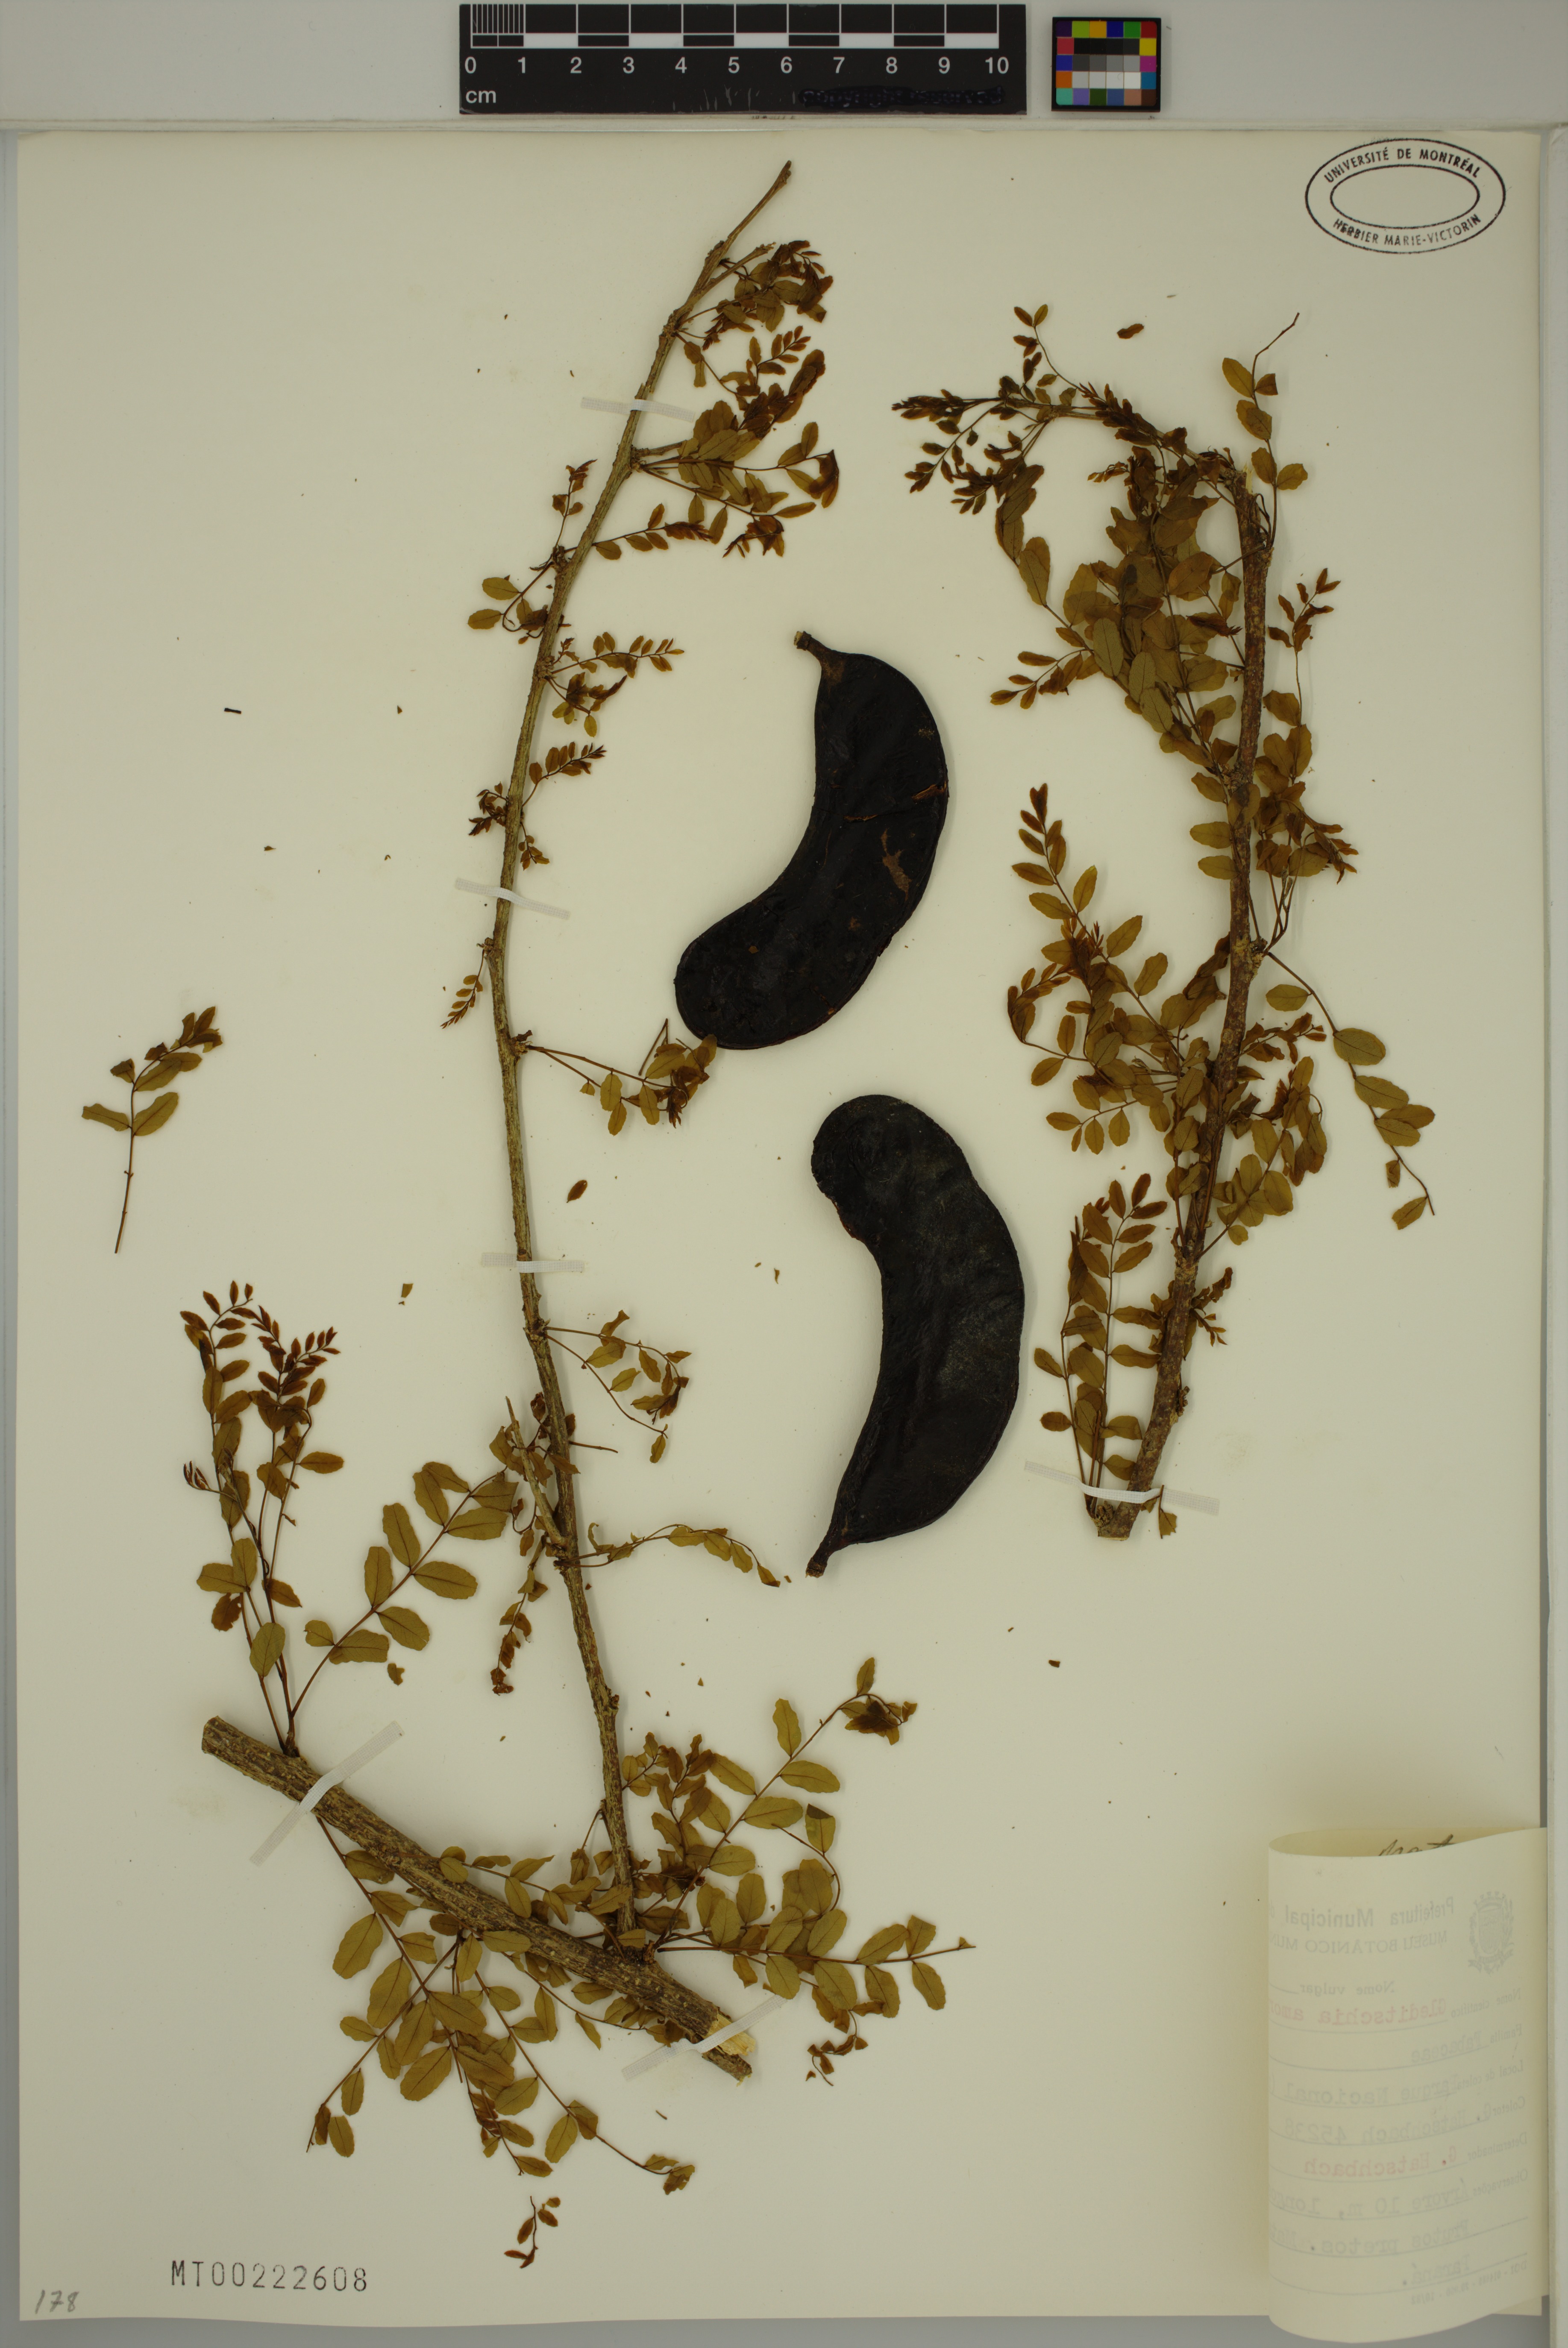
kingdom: Plantae
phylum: Tracheophyta
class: Magnoliopsida
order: Fabales
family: Fabaceae
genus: Gleditsia
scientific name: Gleditsia amorphoides
